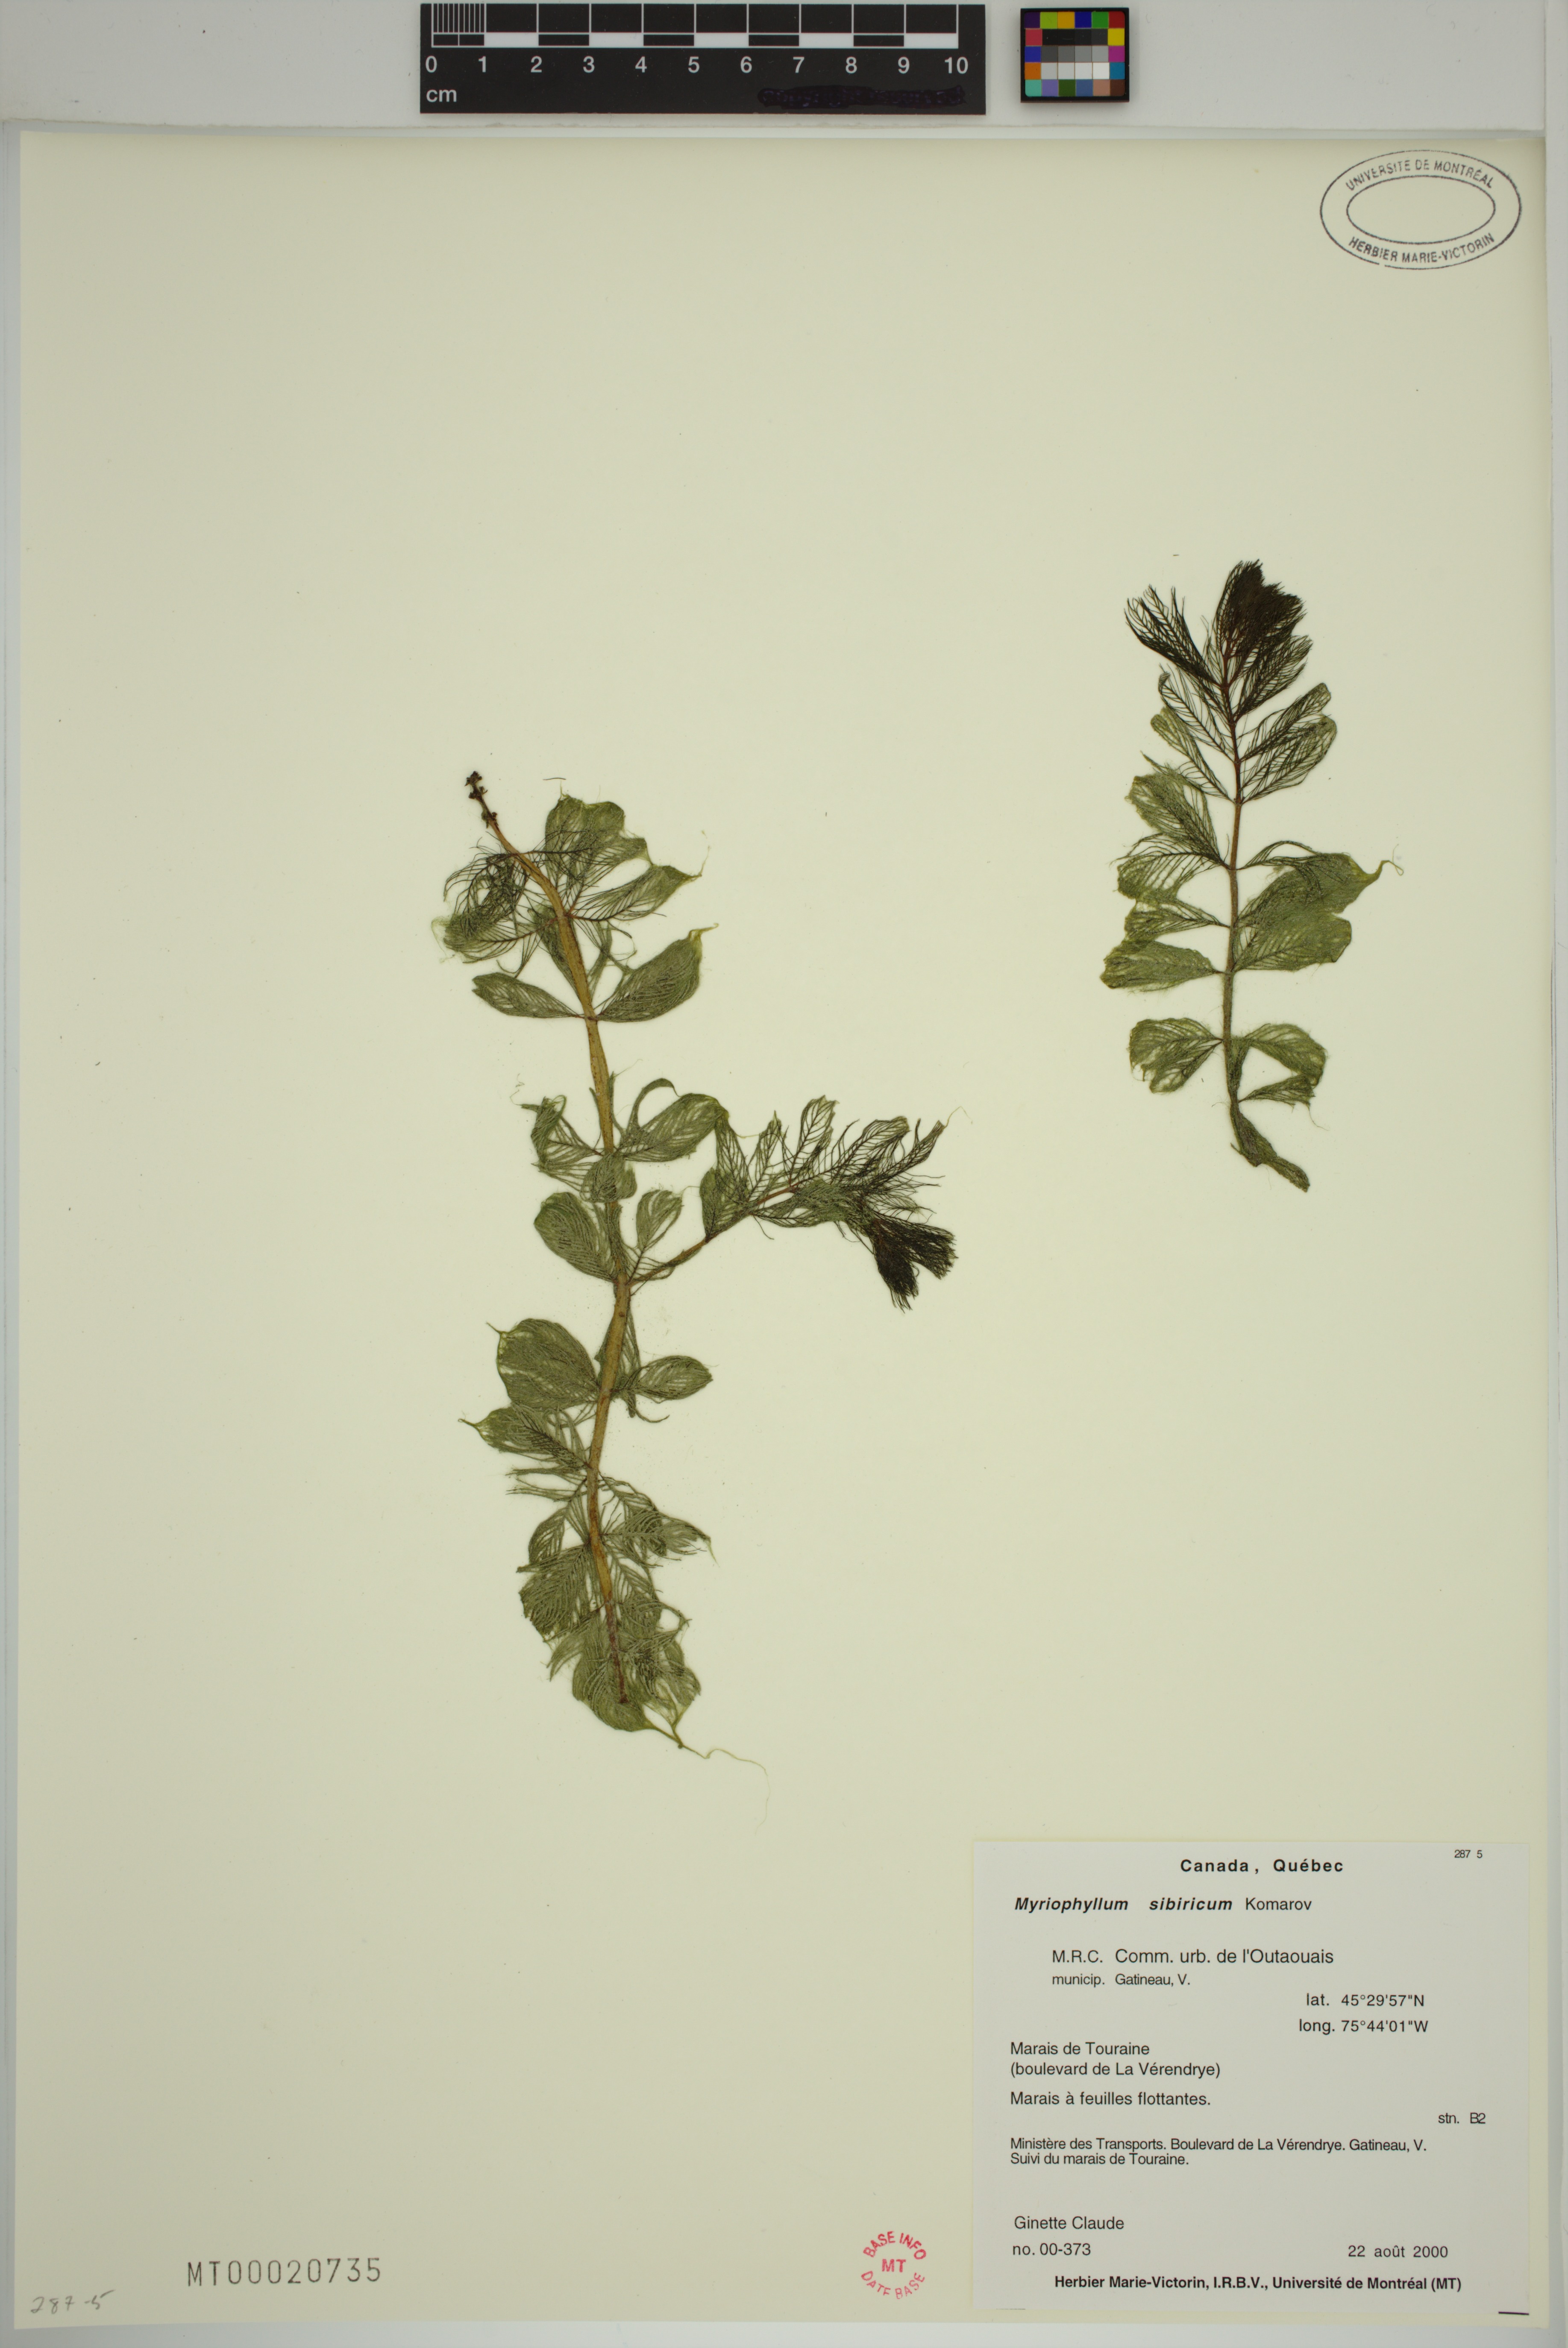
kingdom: Plantae
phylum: Tracheophyta
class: Magnoliopsida
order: Saxifragales
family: Haloragaceae
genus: Myriophyllum
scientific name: Myriophyllum sibiricum
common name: Siberian water-milfoil
